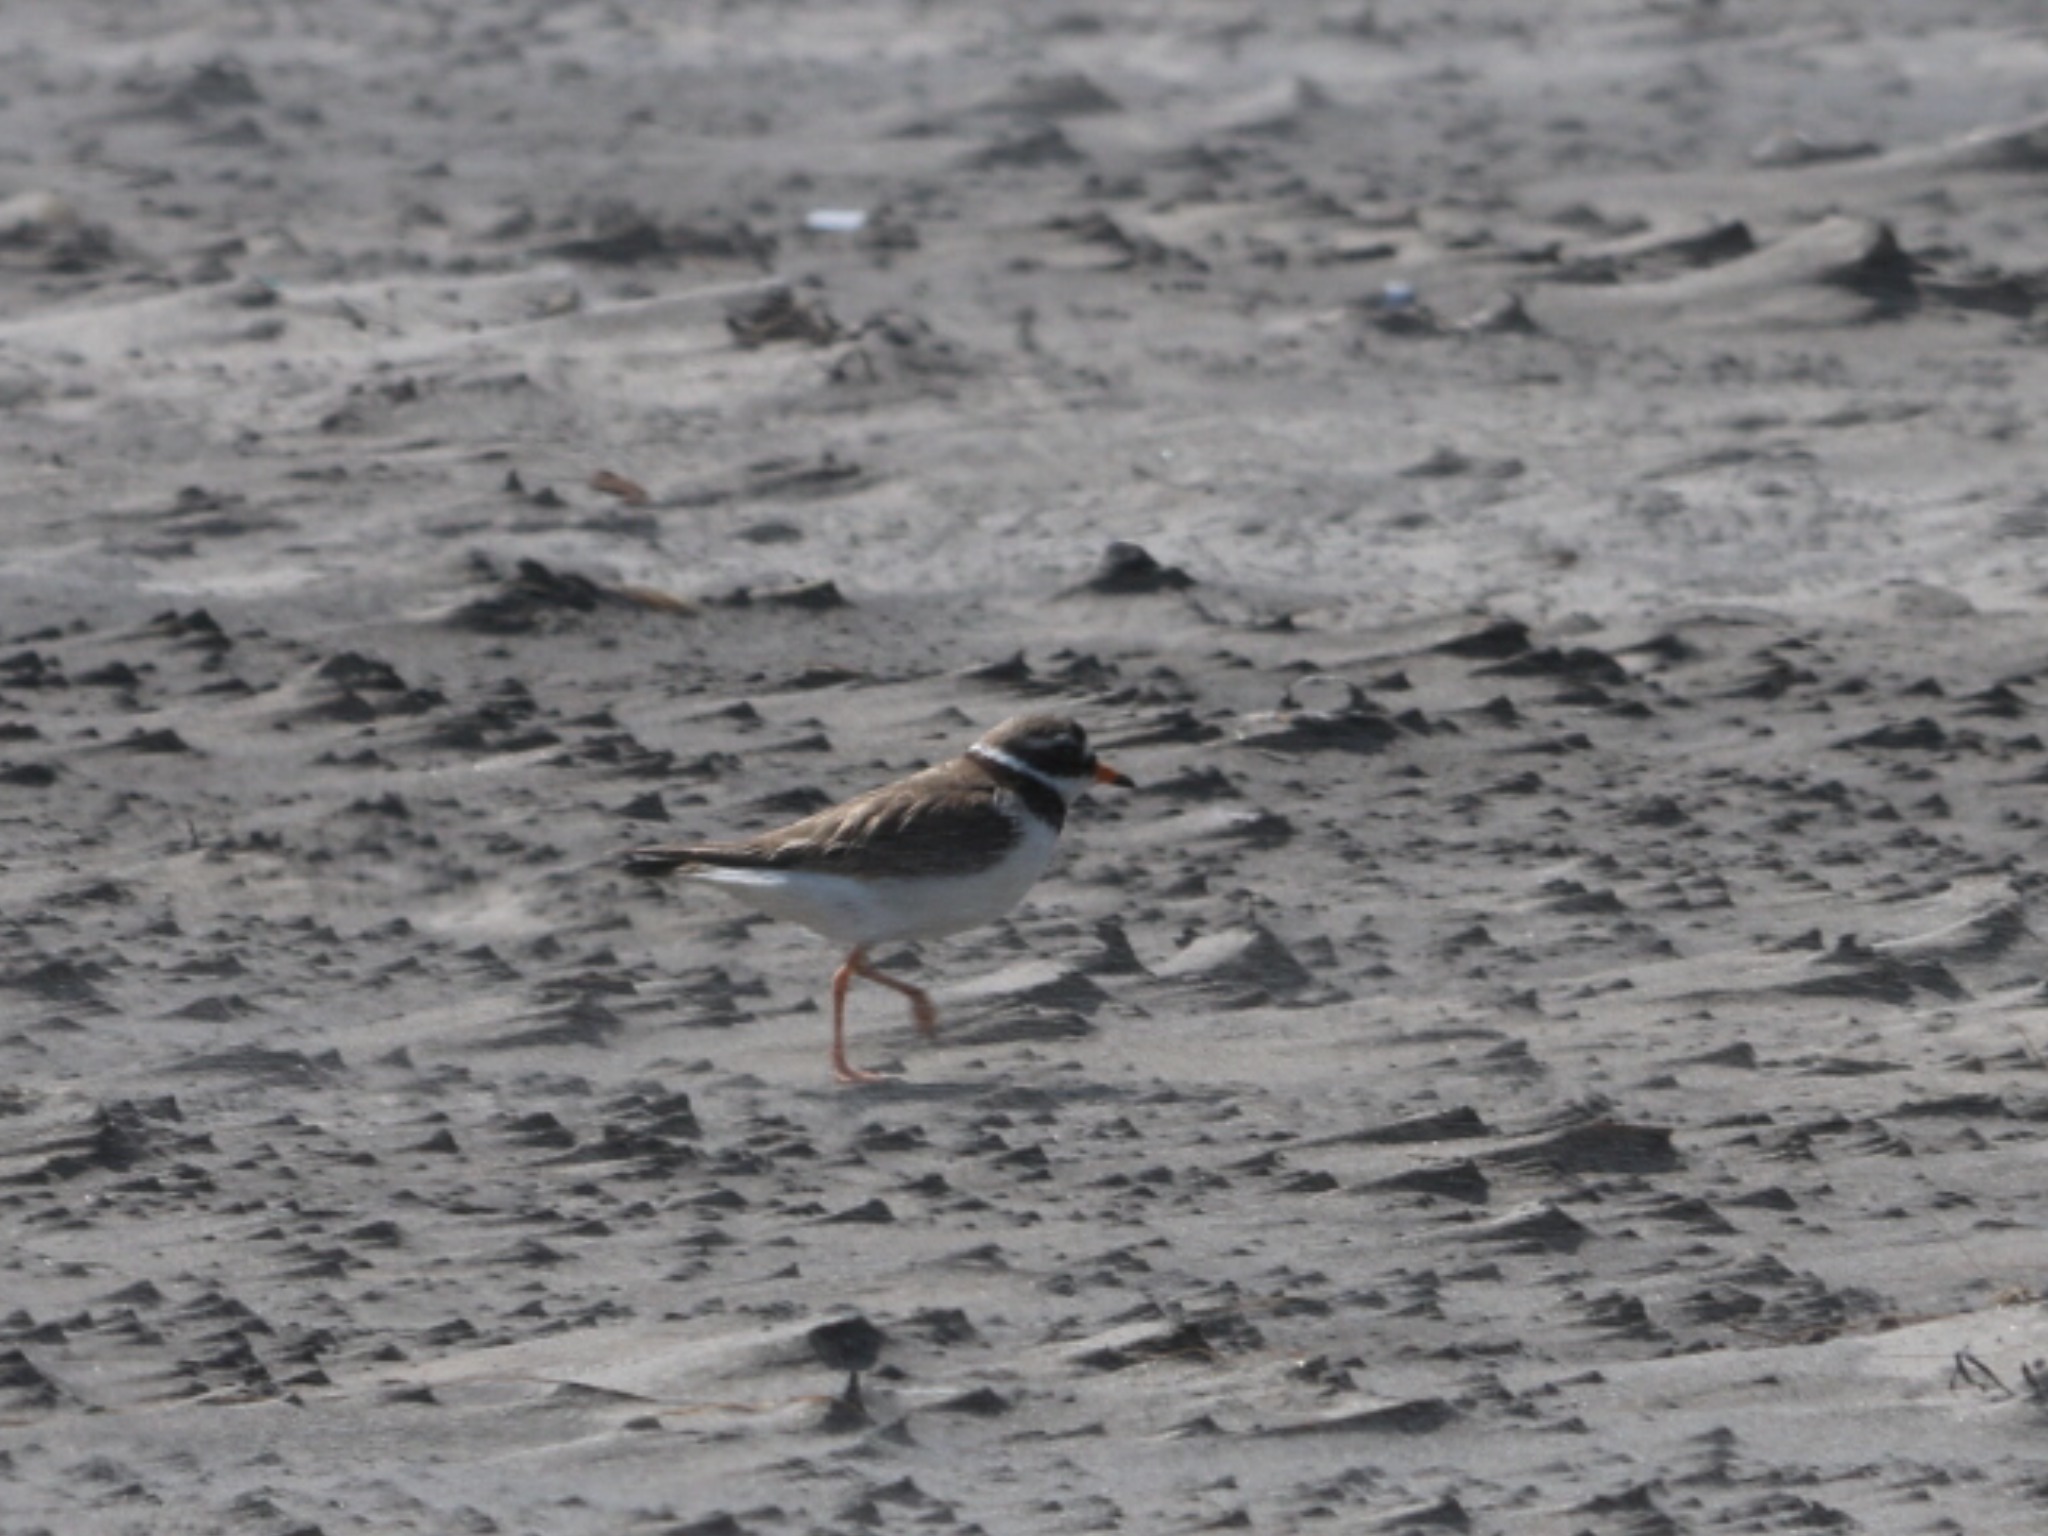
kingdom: Animalia
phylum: Chordata
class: Aves
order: Charadriiformes
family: Charadriidae
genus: Charadrius
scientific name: Charadrius hiaticula
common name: Stor præstekrave
